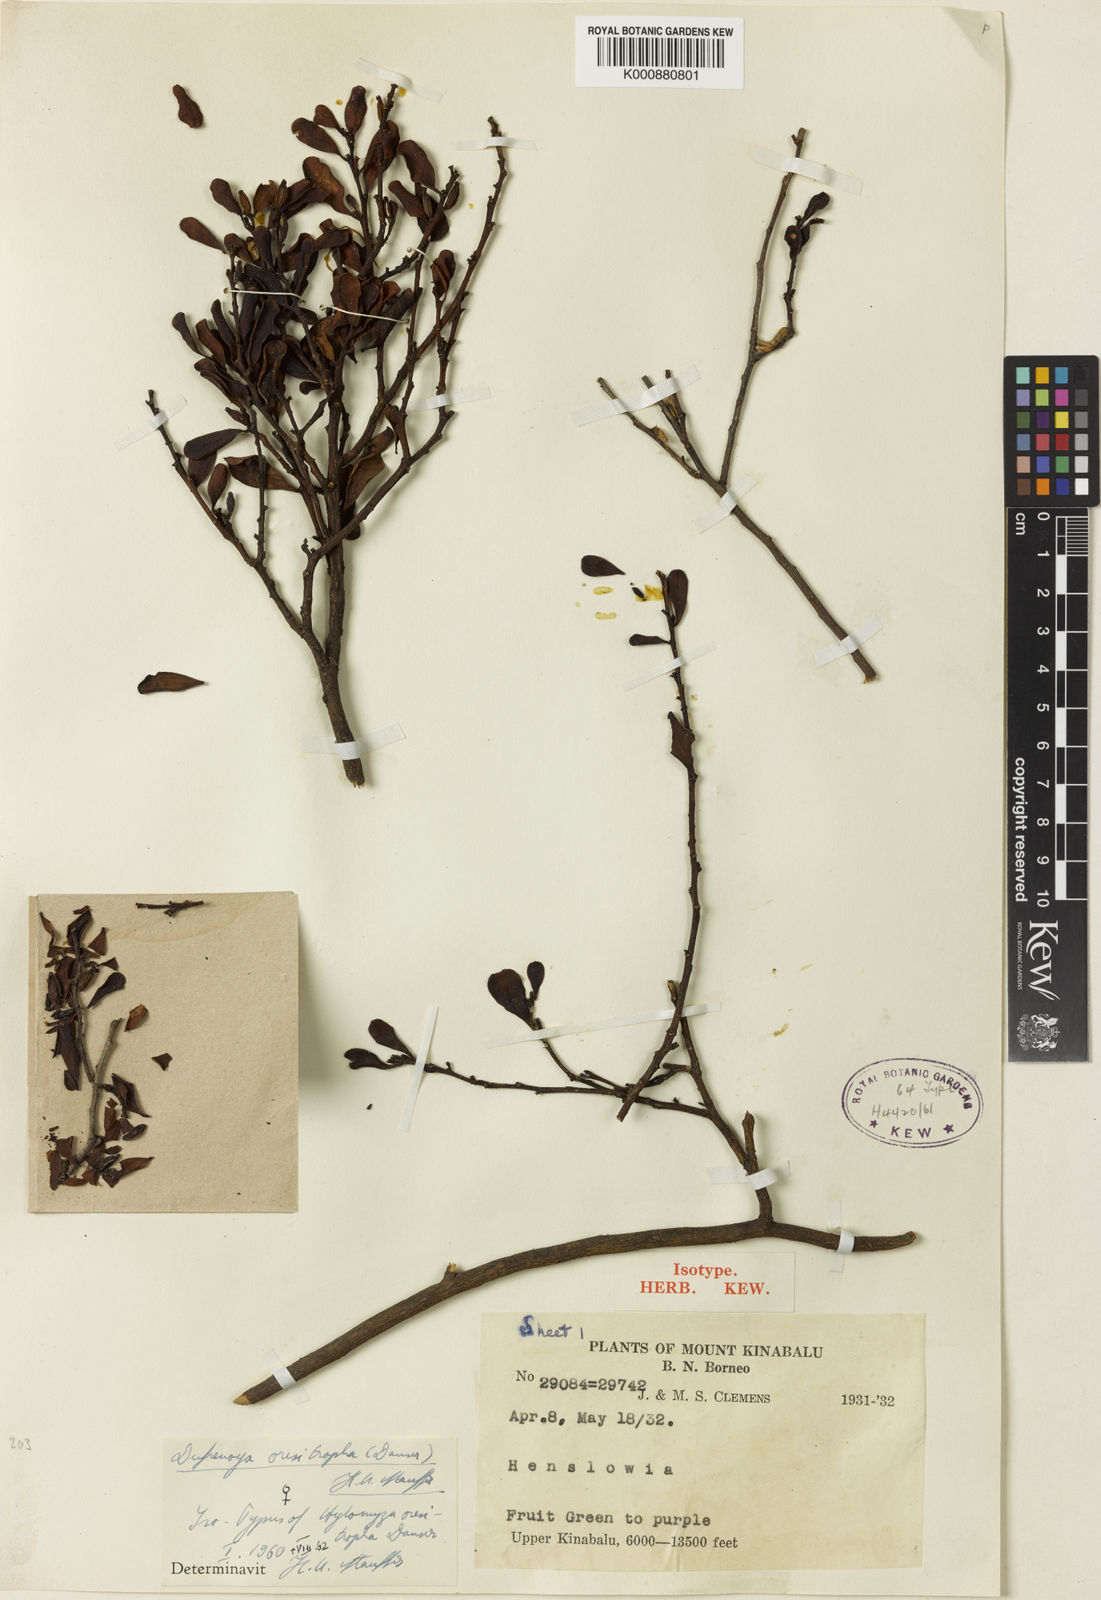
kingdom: Plantae
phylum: Tracheophyta
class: Magnoliopsida
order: Santalales
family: Amphorogynaceae
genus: Dufrenoya
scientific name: Dufrenoya oresitropha
